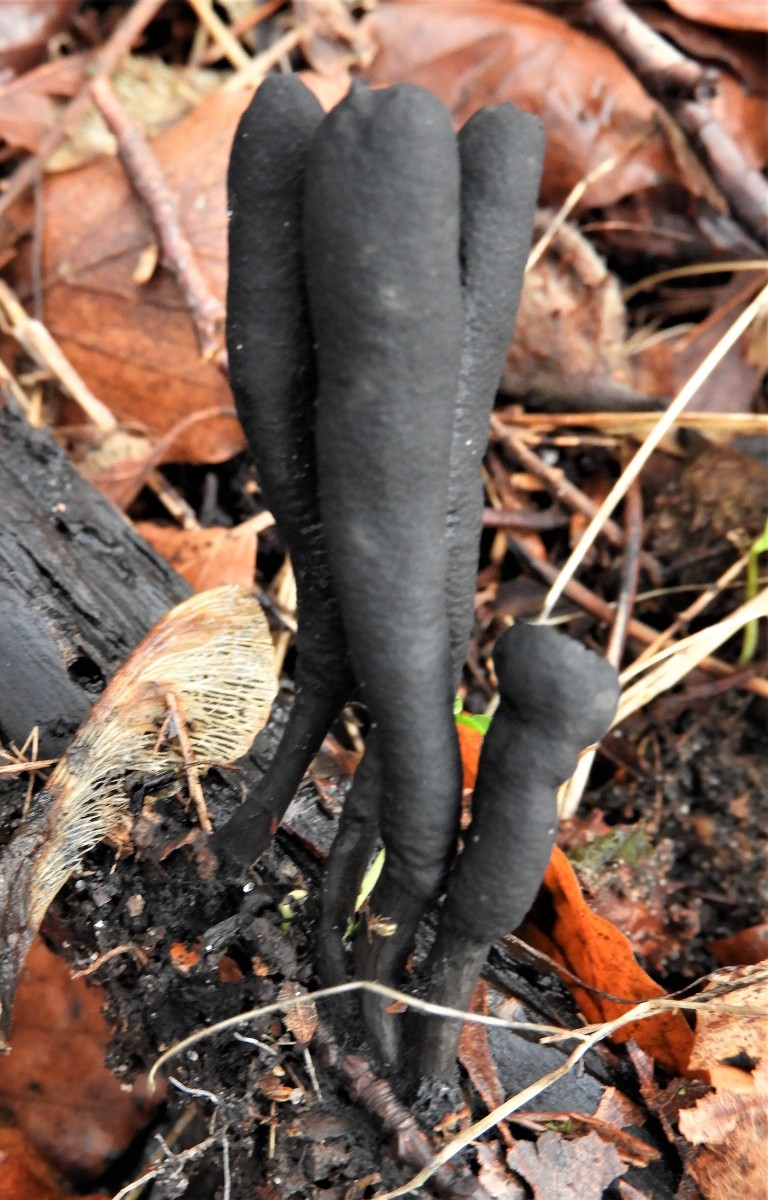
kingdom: Fungi
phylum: Ascomycota
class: Sordariomycetes
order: Xylariales
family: Xylariaceae
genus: Xylaria
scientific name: Xylaria longipes
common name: slank stødsvamp
